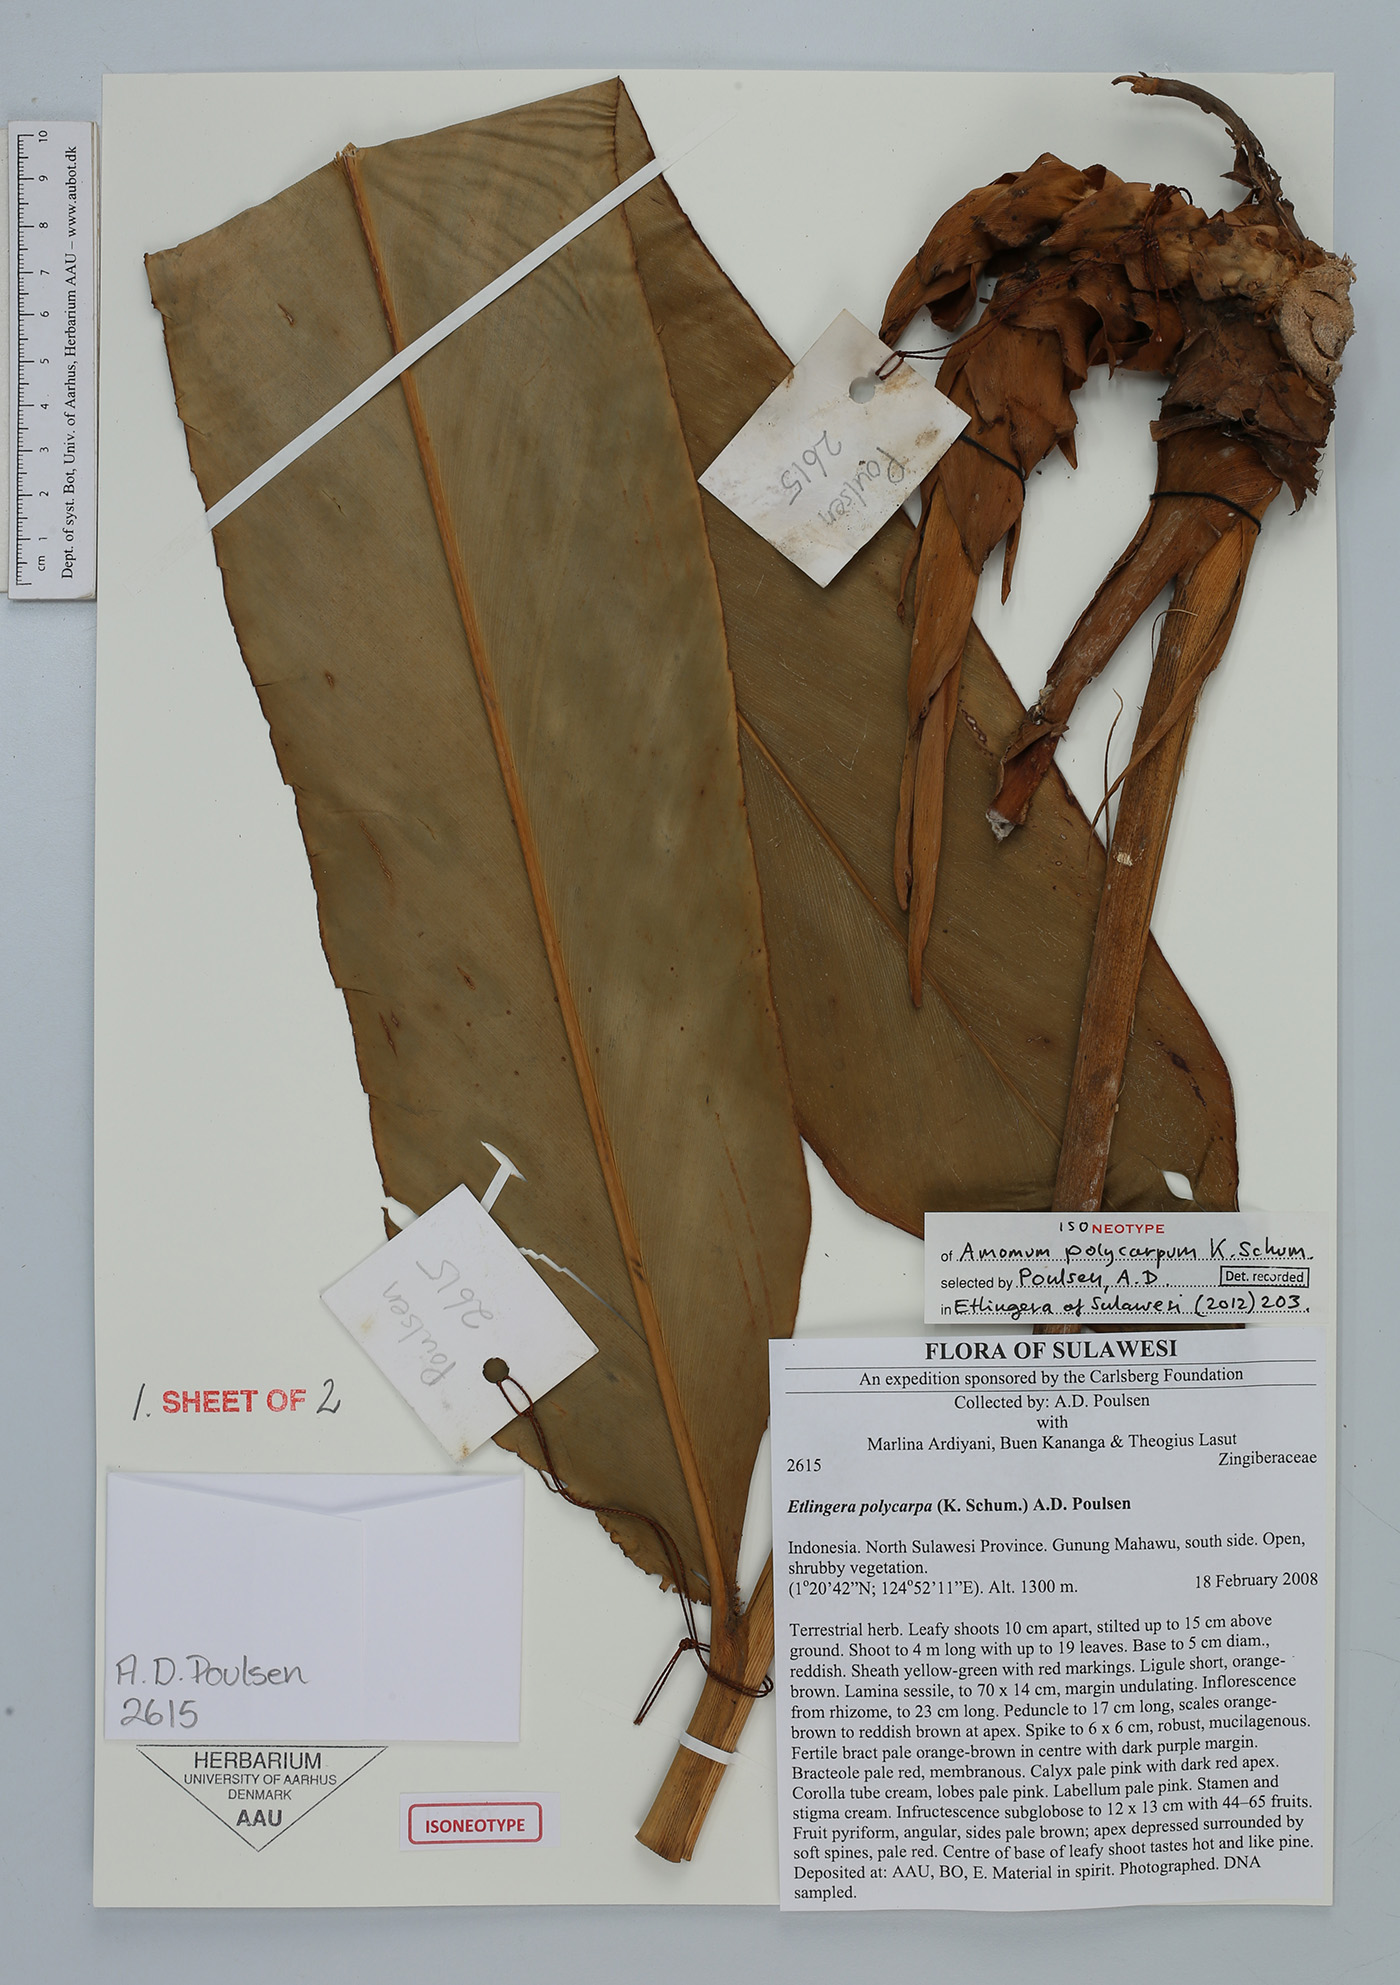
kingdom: Plantae
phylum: Tracheophyta
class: Liliopsida
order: Zingiberales
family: Zingiberaceae
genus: Etlingera
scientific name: Etlingera polycarpa
